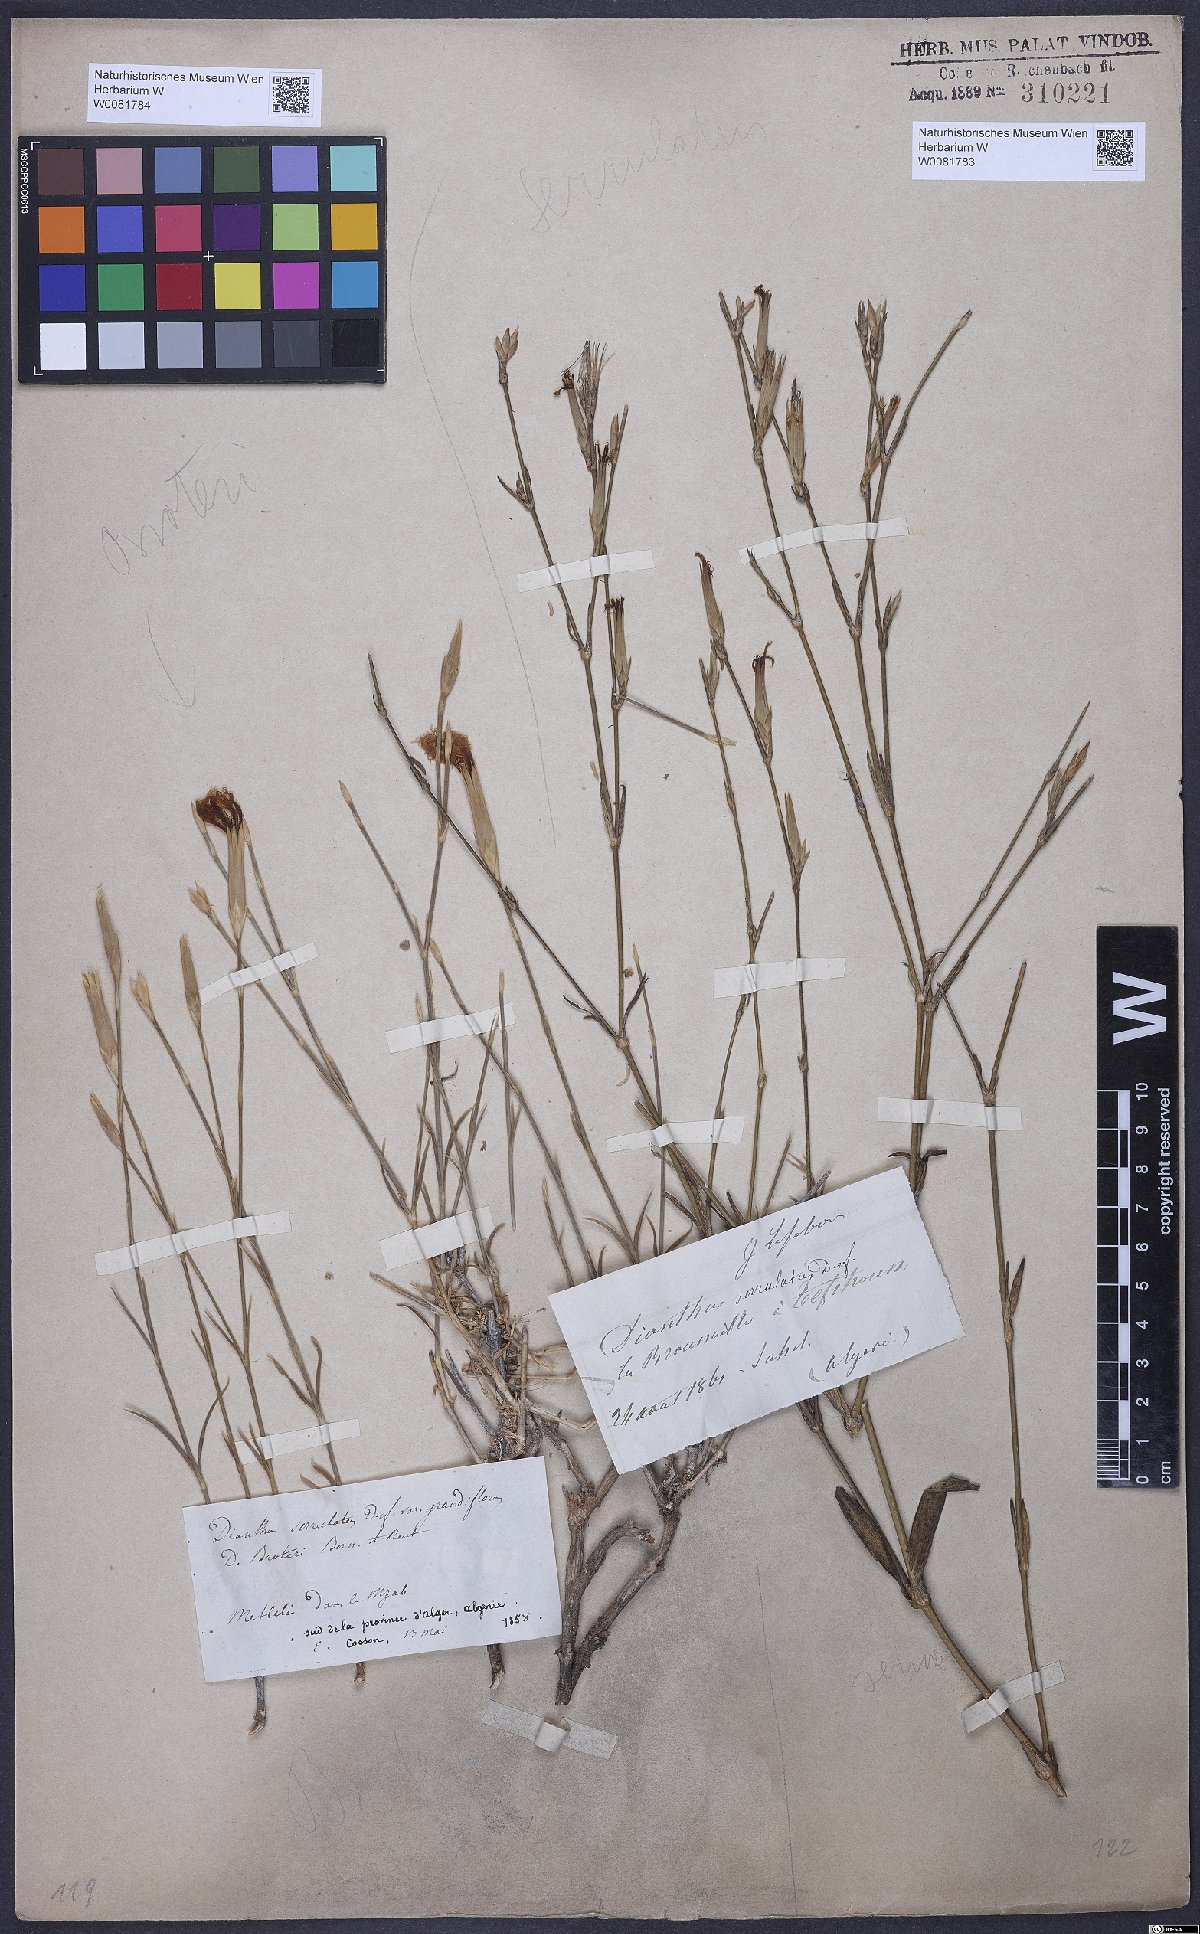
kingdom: Plantae
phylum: Tracheophyta
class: Magnoliopsida
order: Caryophyllales
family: Caryophyllaceae
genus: Dianthus
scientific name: Dianthus broteri
